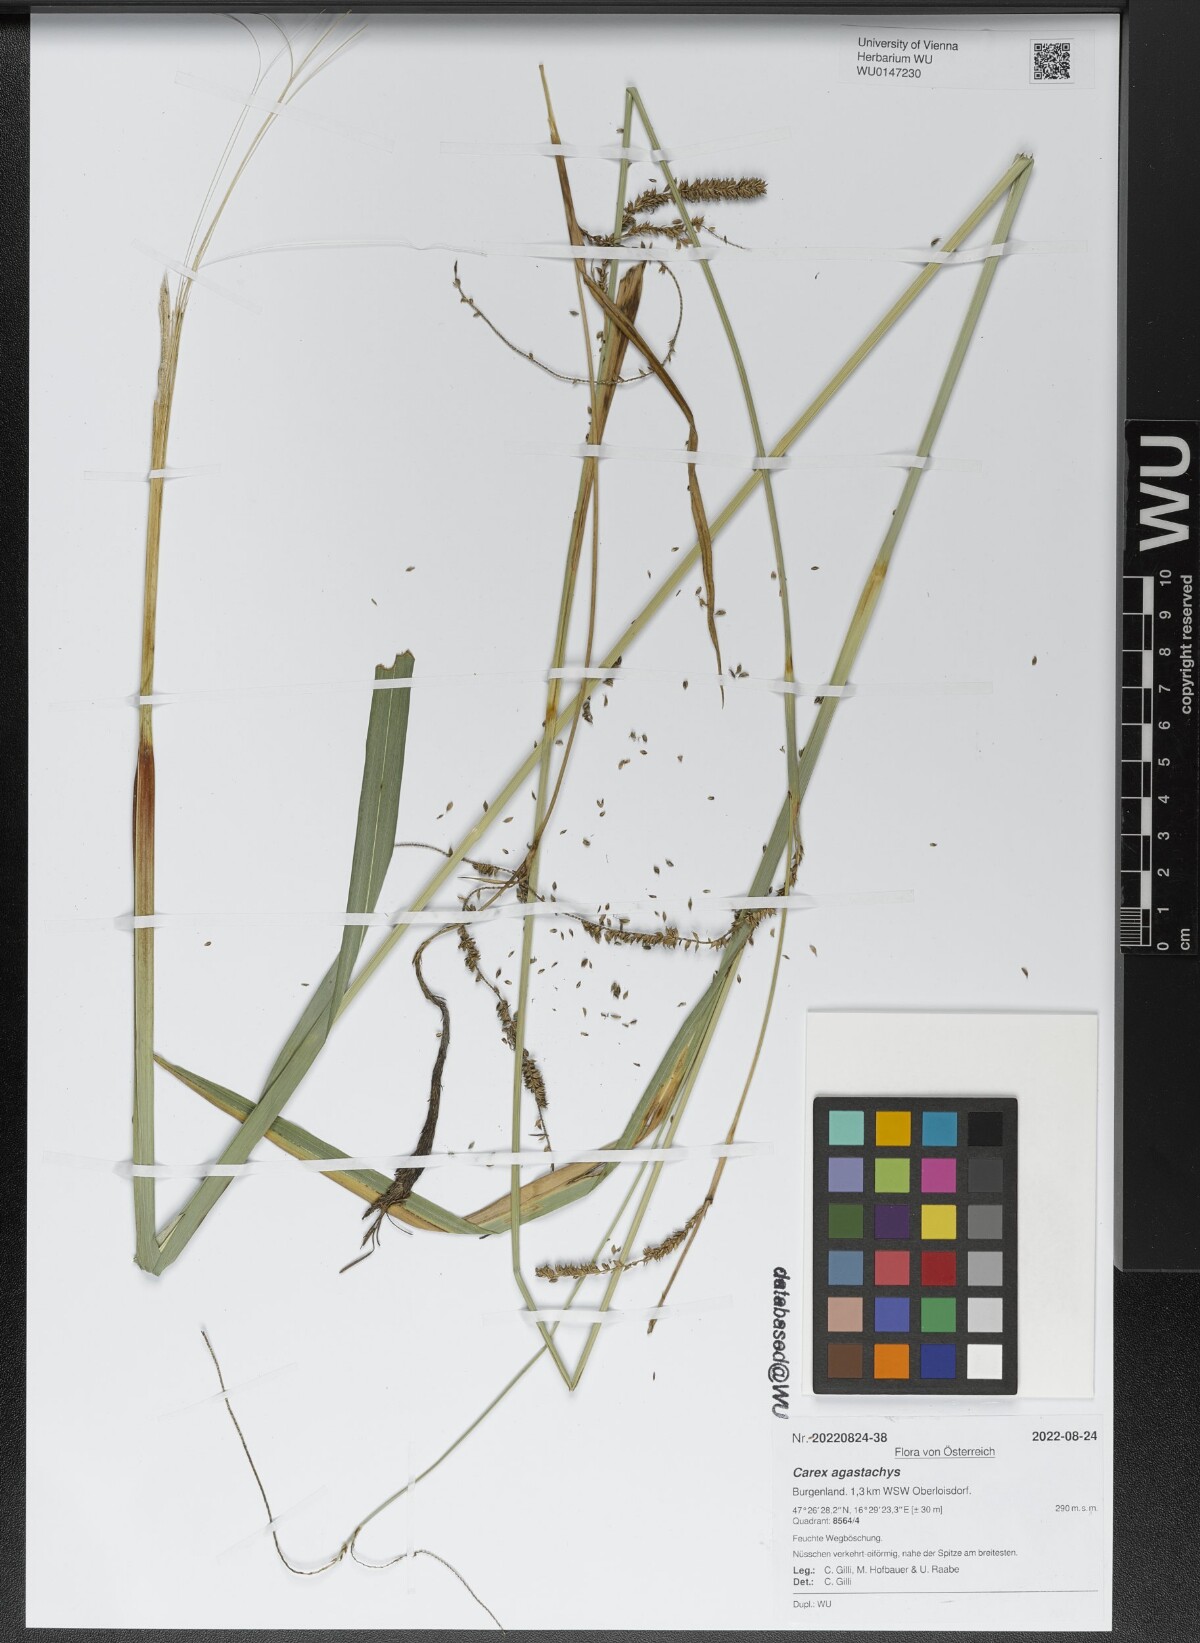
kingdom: Plantae
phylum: Tracheophyta
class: Liliopsida
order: Poales
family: Cyperaceae
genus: Carex
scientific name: Carex agastachys
